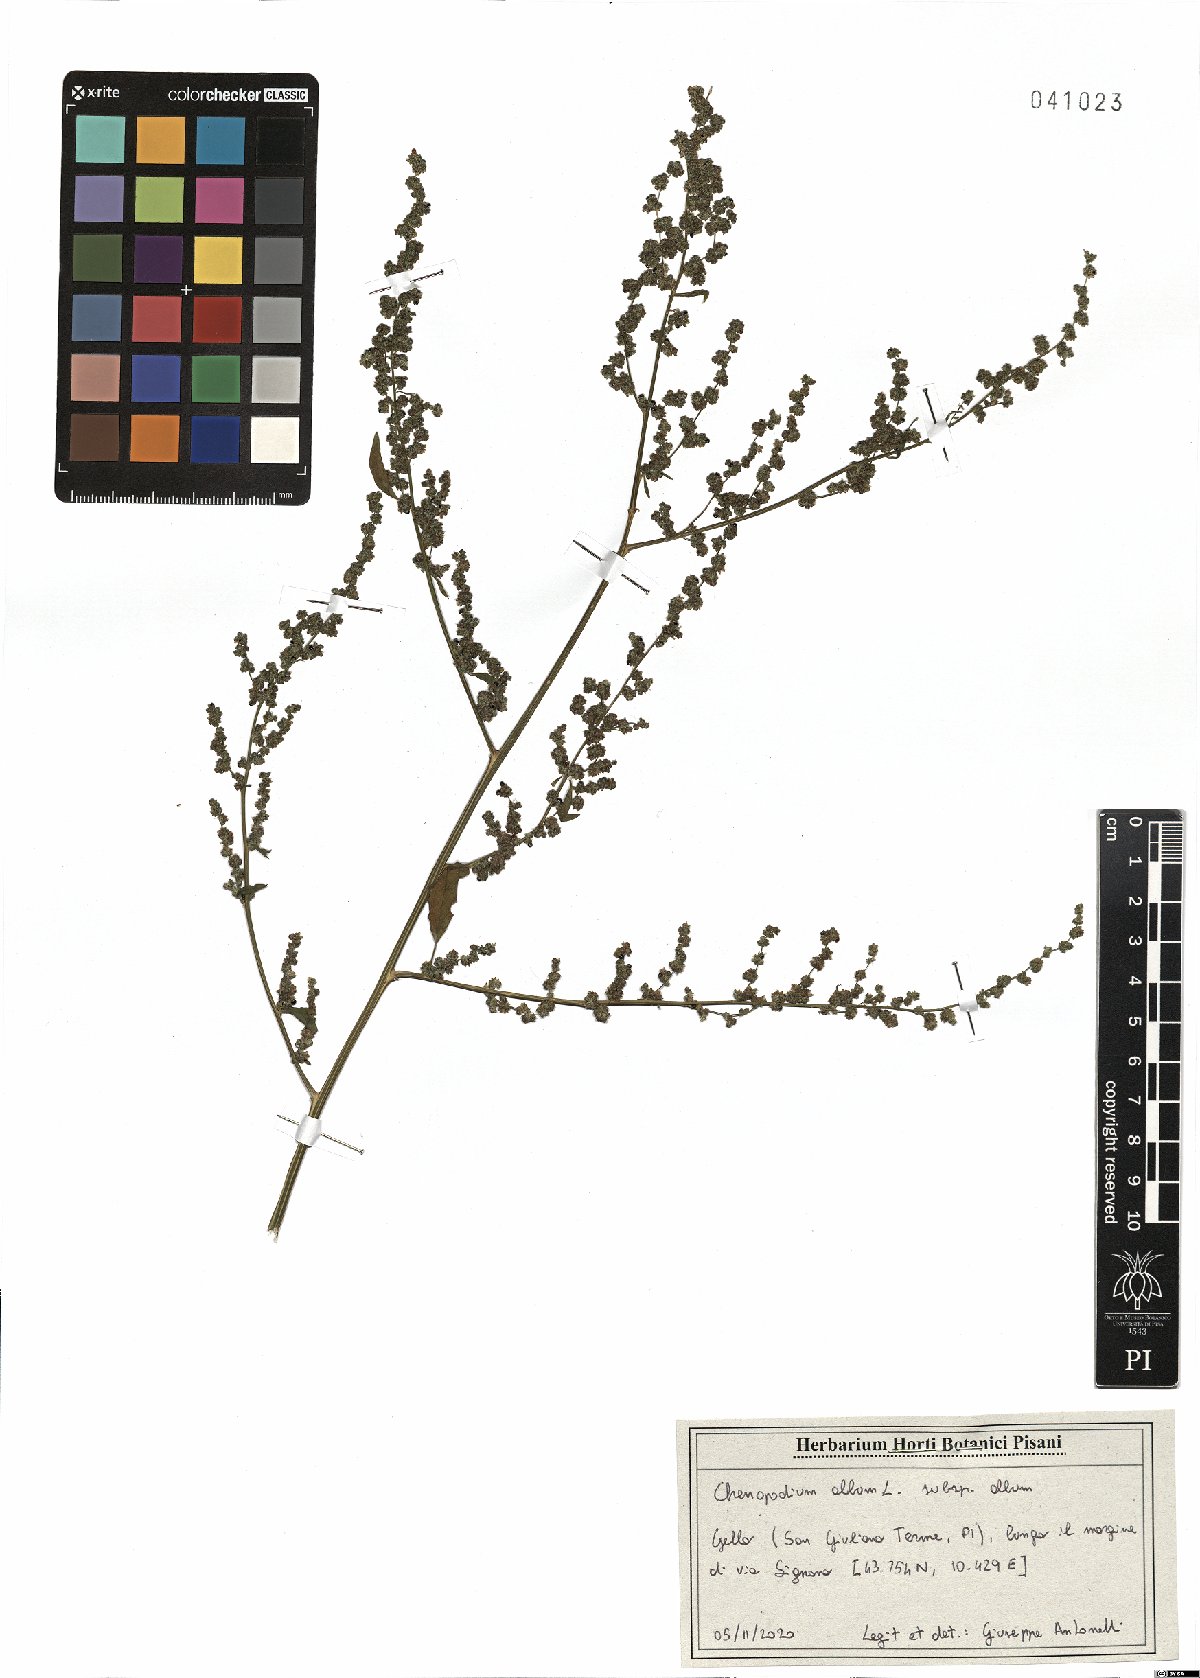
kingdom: Plantae
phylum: Tracheophyta
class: Magnoliopsida
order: Caryophyllales
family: Amaranthaceae
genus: Chenopodium
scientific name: Chenopodium album
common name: Fat-hen
